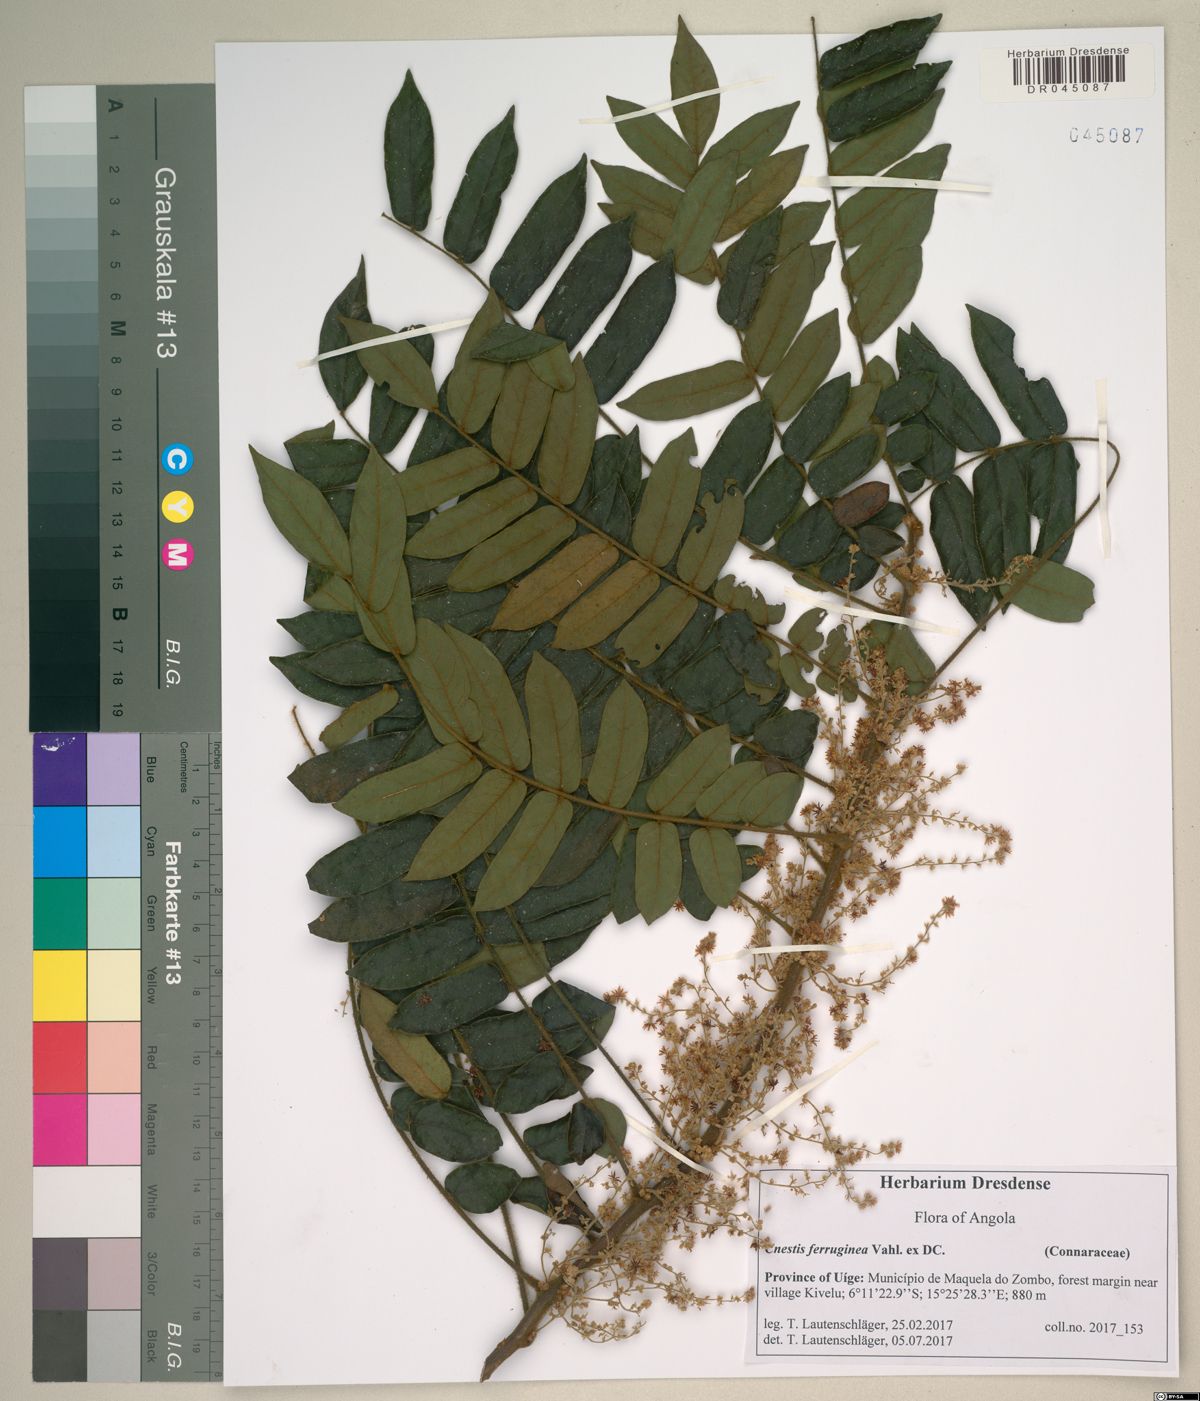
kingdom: Plantae
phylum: Tracheophyta
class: Magnoliopsida
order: Oxalidales
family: Connaraceae
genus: Cnestis
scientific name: Cnestis corniculata
